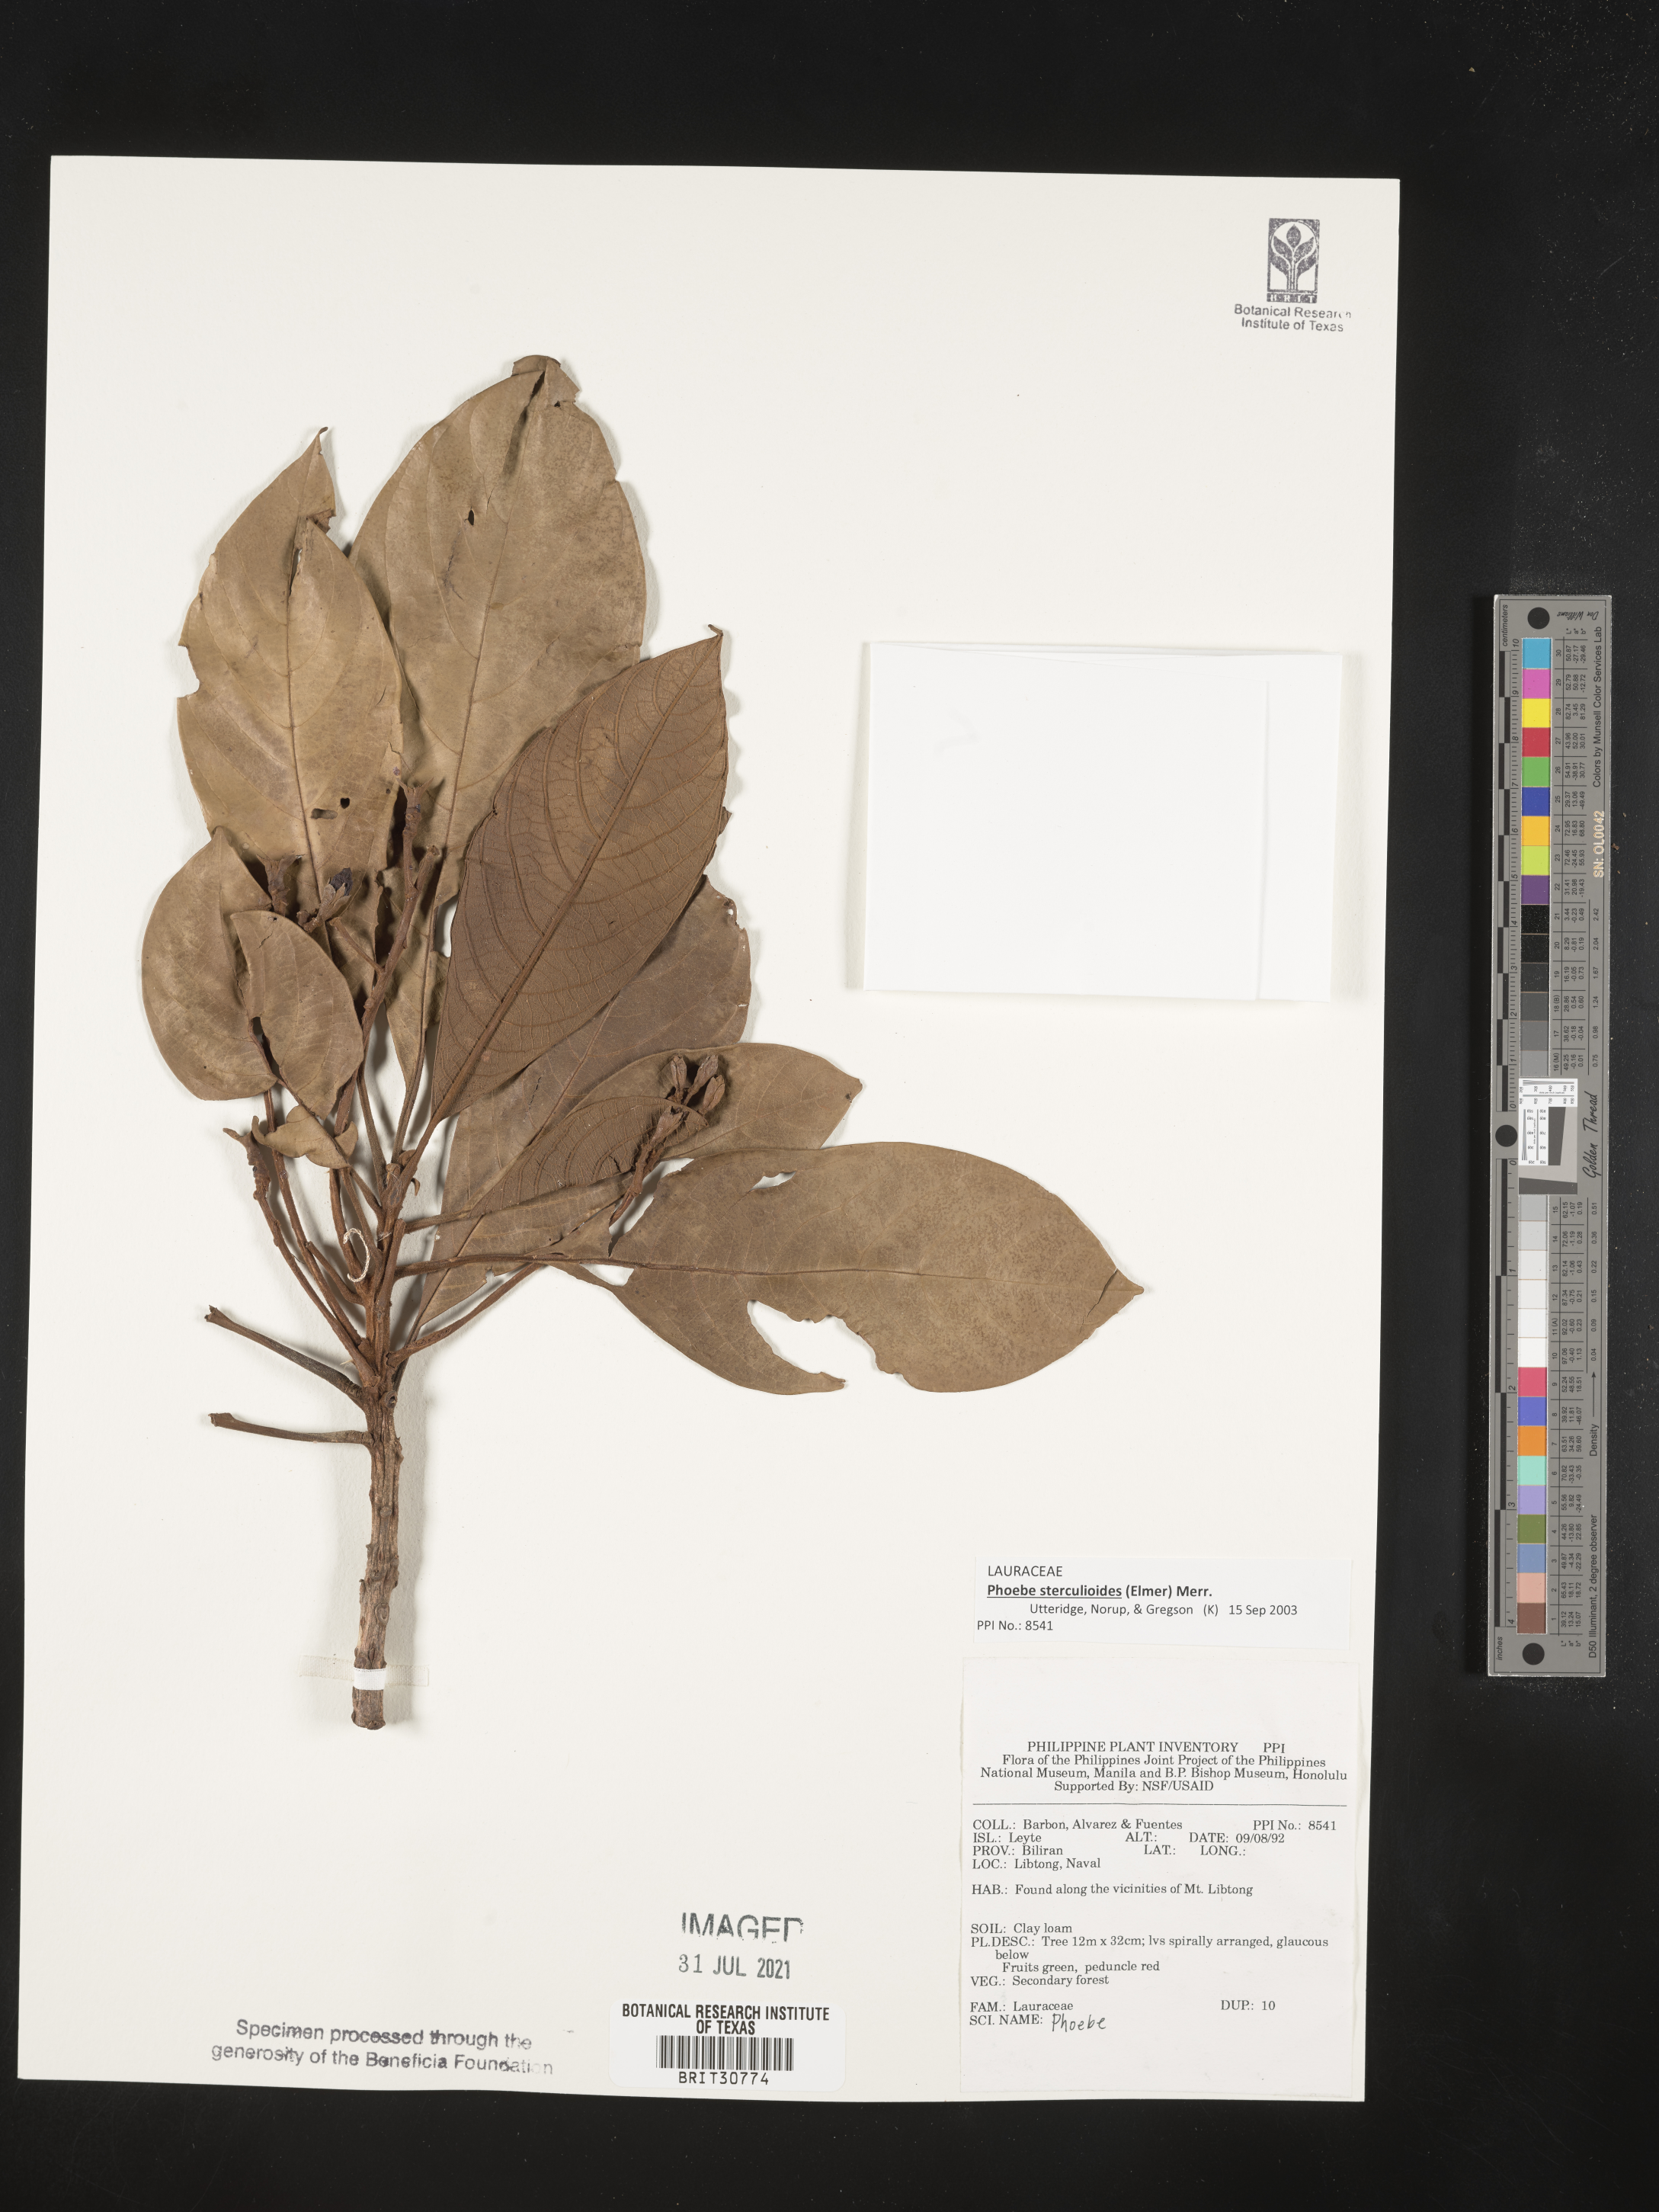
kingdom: Plantae
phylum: Tracheophyta
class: Magnoliopsida
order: Laurales
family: Lauraceae
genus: Phoebe
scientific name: Phoebe
